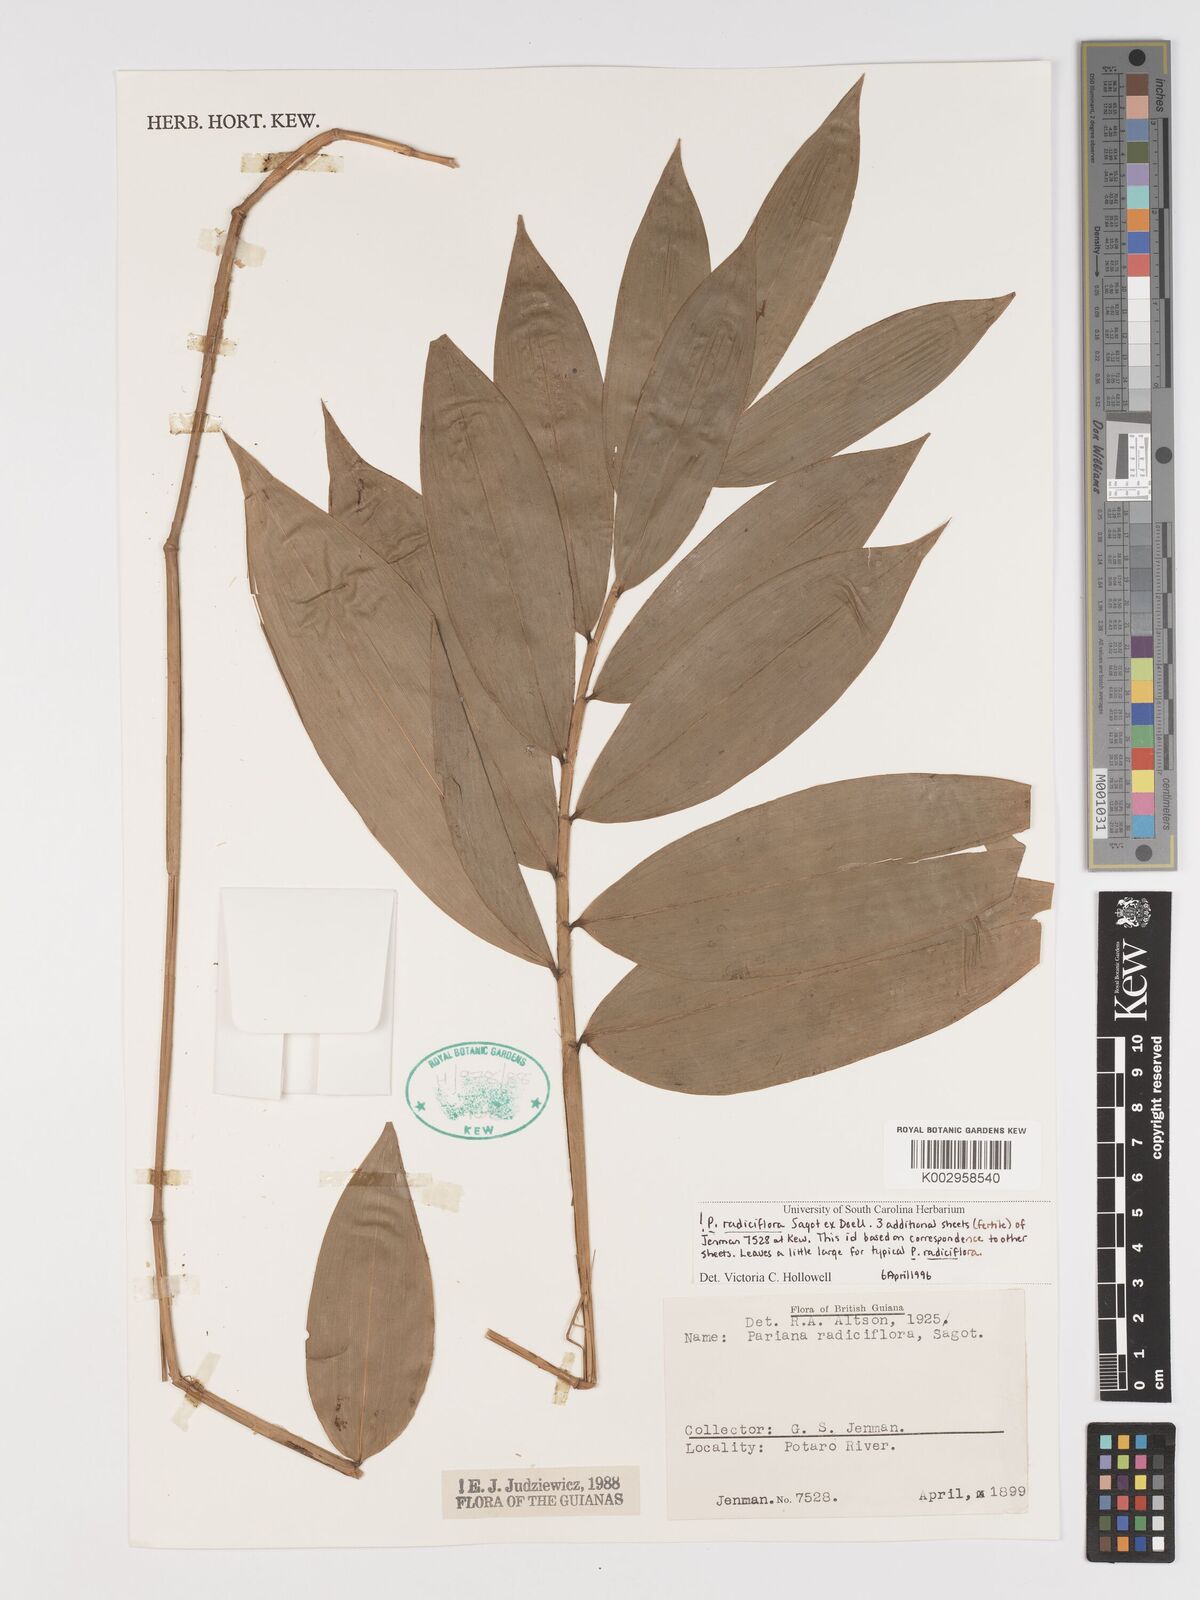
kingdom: Plantae
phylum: Tracheophyta
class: Liliopsida
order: Poales
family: Poaceae
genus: Pariana
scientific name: Pariana radiciflora
